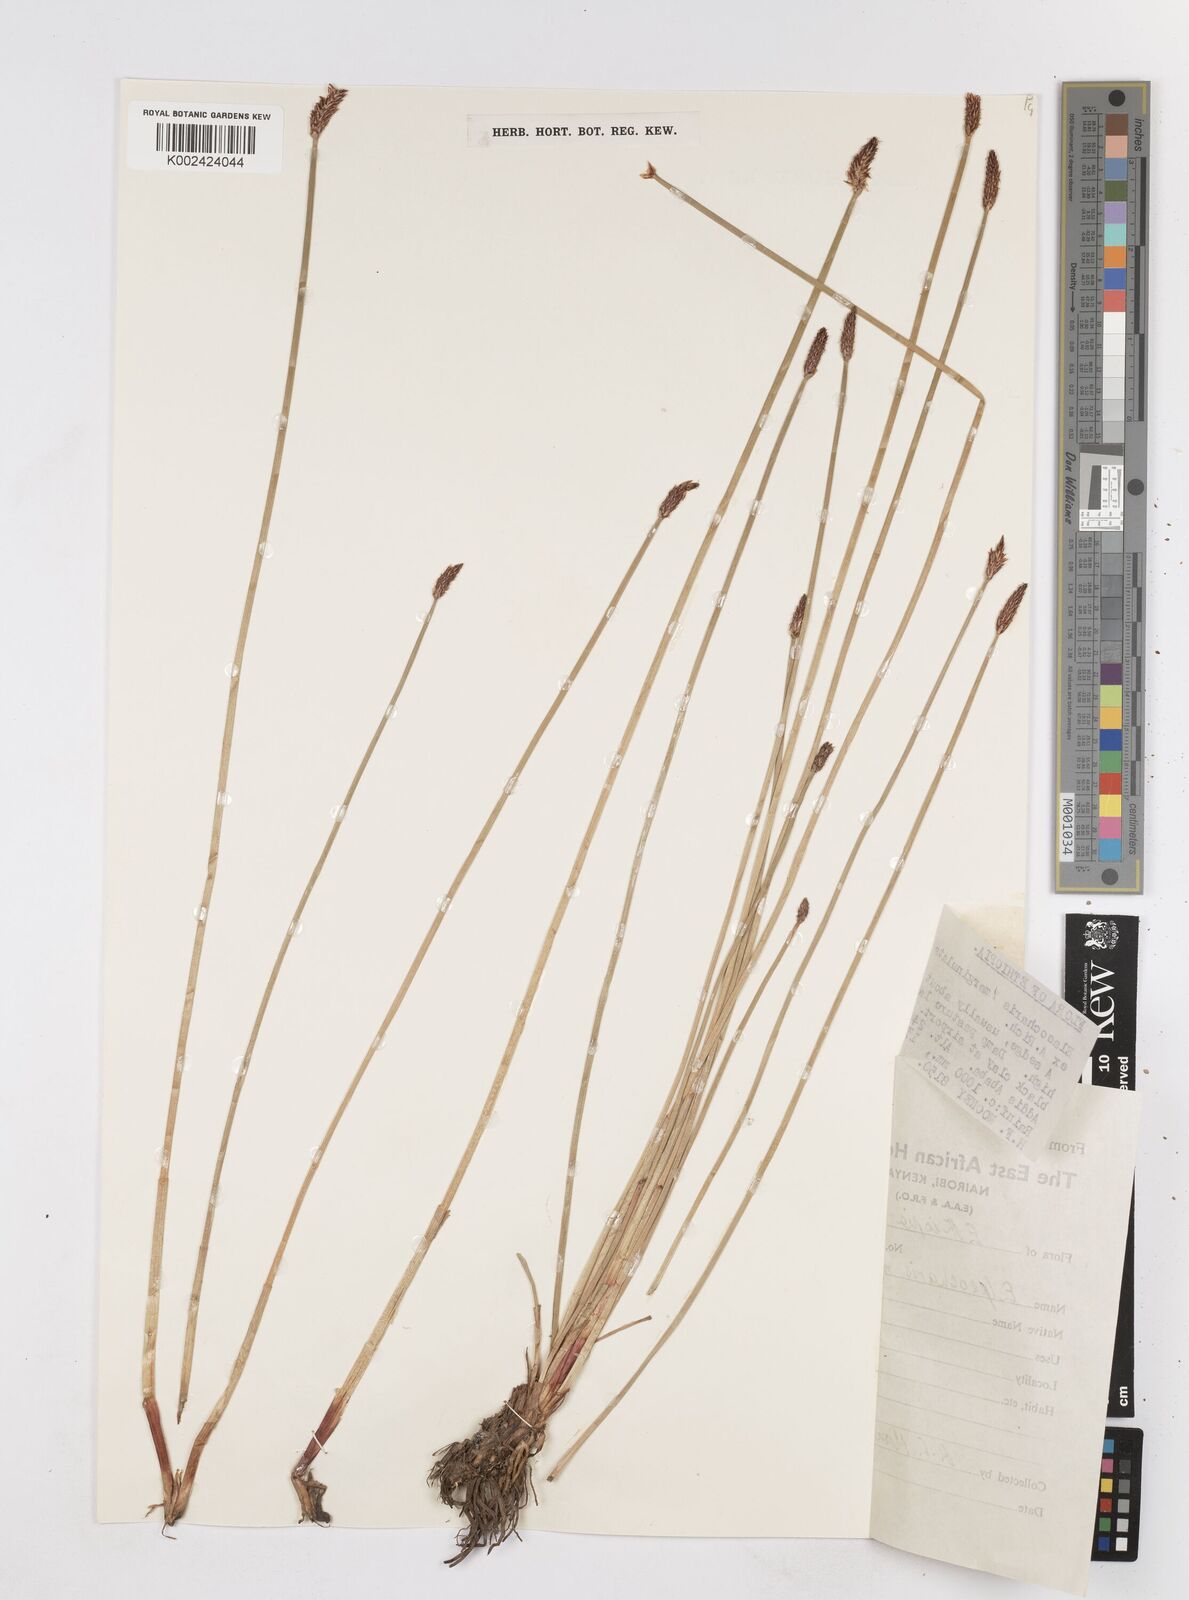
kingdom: Plantae
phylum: Tracheophyta
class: Liliopsida
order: Poales
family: Cyperaceae
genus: Eleocharis
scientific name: Eleocharis marginulata
